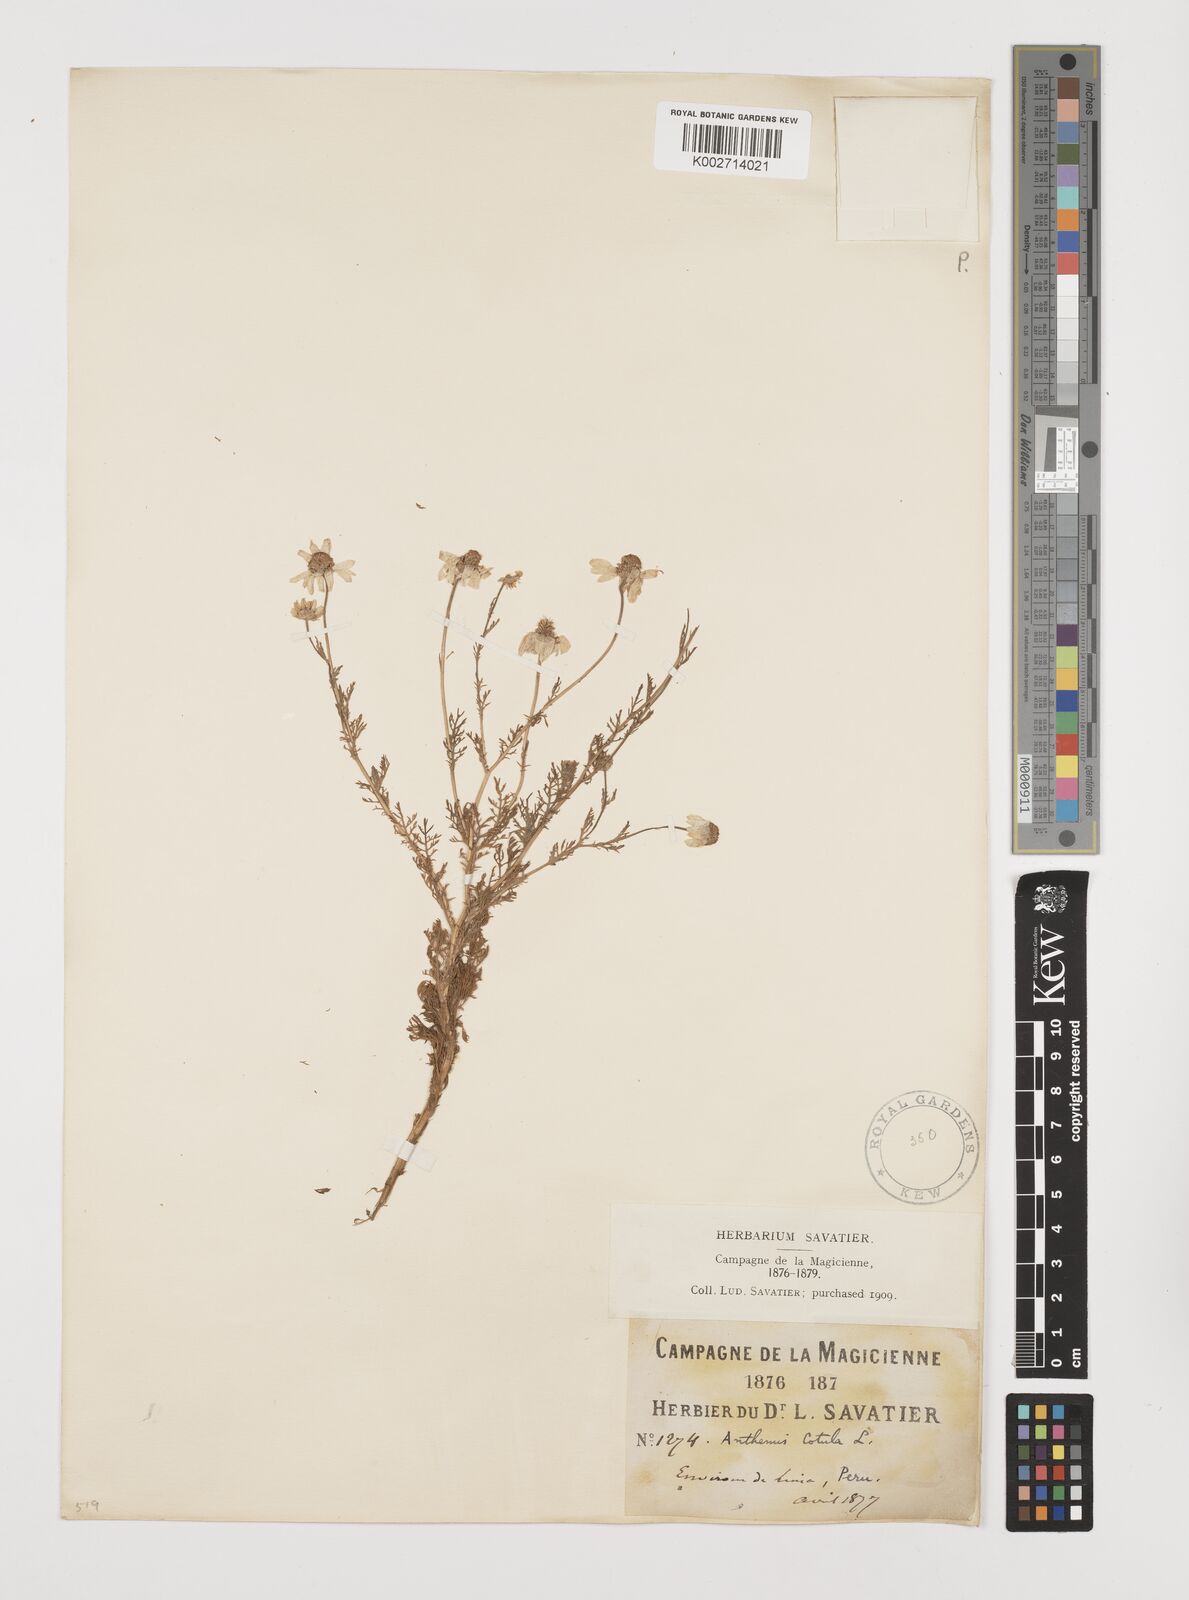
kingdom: Plantae
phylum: Tracheophyta
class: Magnoliopsida
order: Asterales
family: Asteraceae
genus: Anthemis
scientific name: Anthemis cotula
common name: Stinking chamomile
